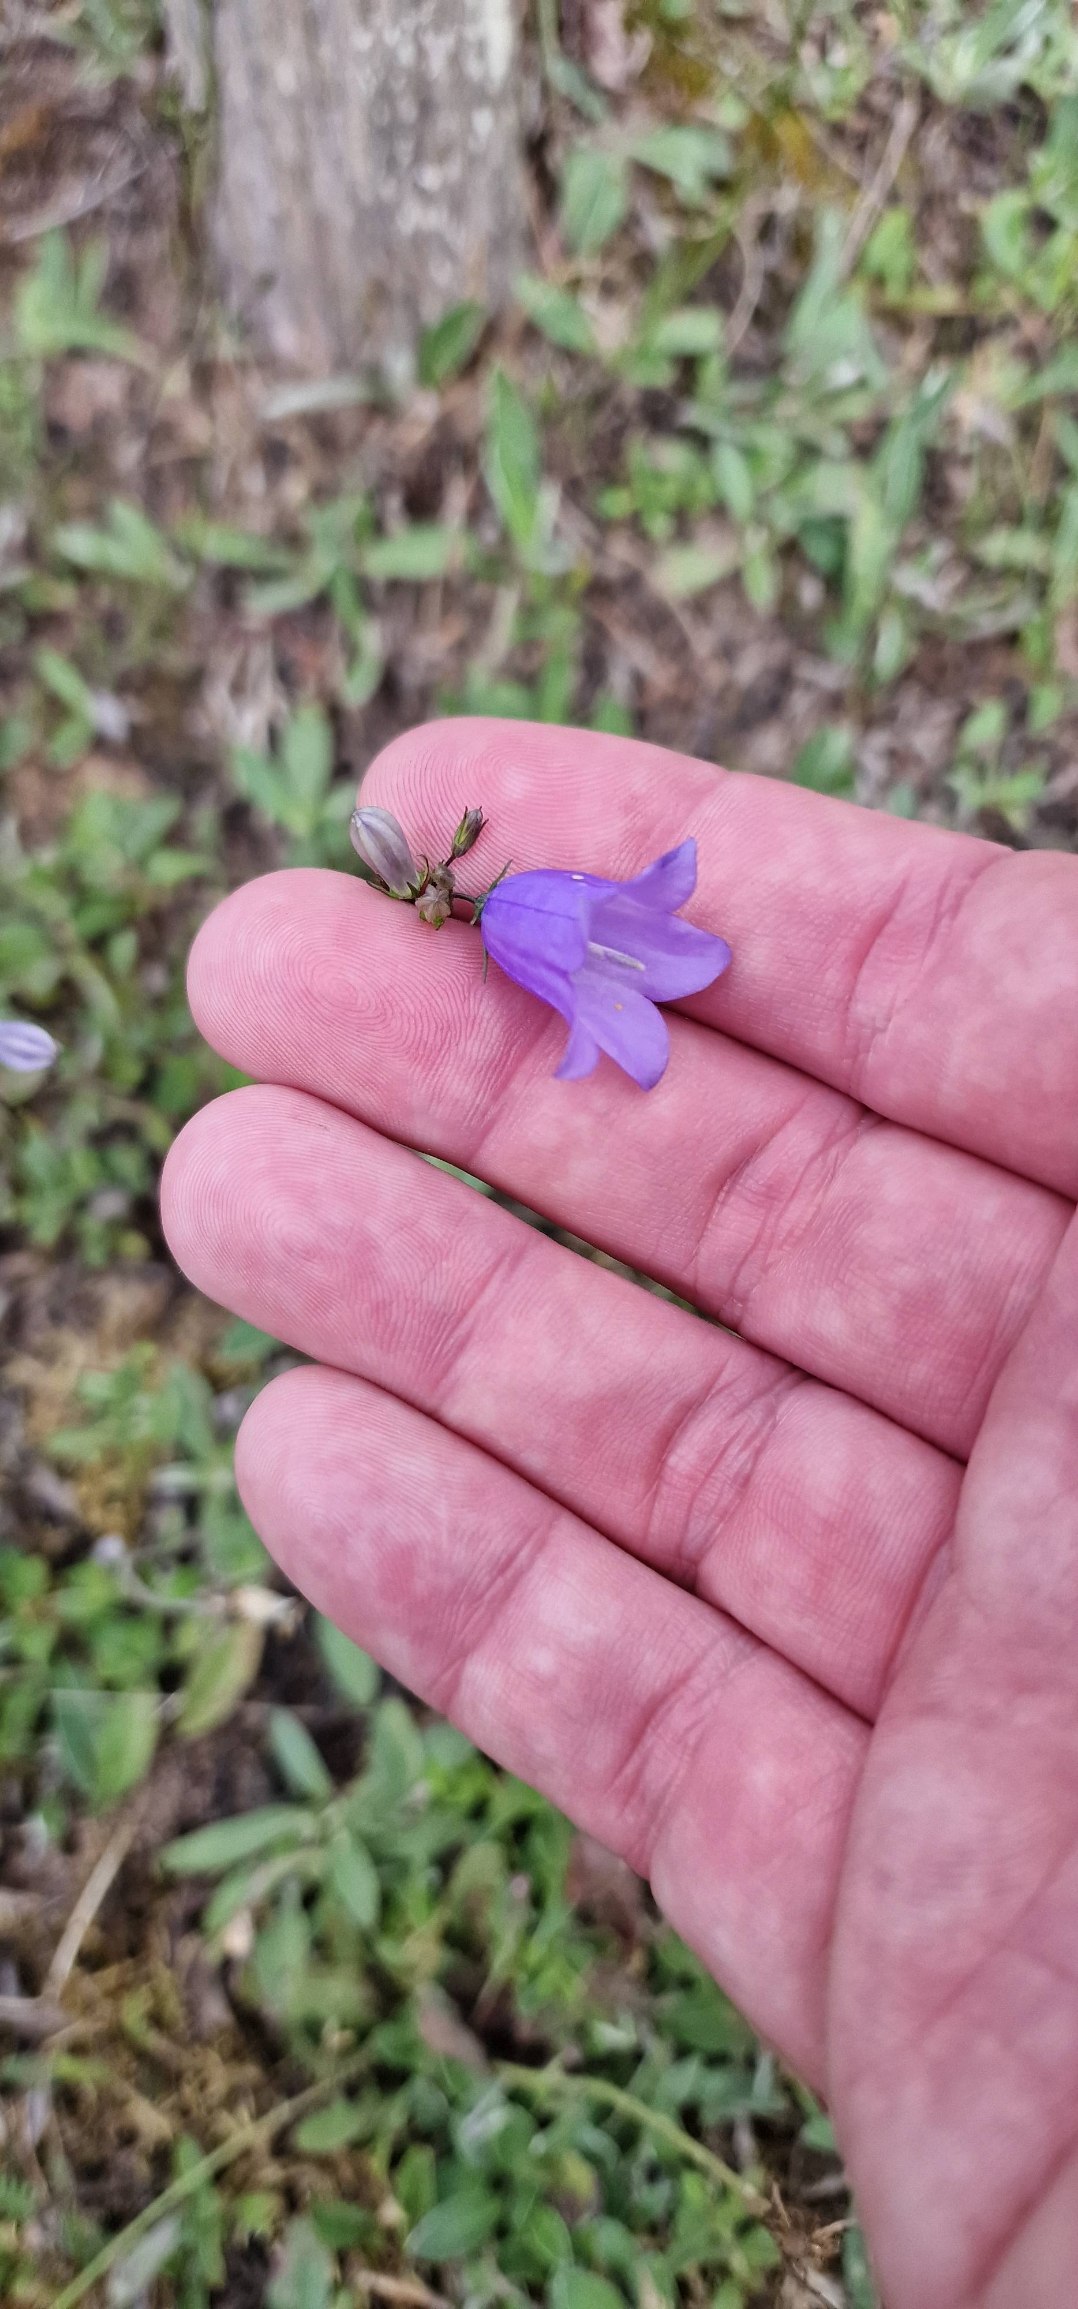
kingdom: Plantae
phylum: Tracheophyta
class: Magnoliopsida
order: Asterales
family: Campanulaceae
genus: Campanula
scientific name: Campanula rotundifolia
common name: Liden klokke
